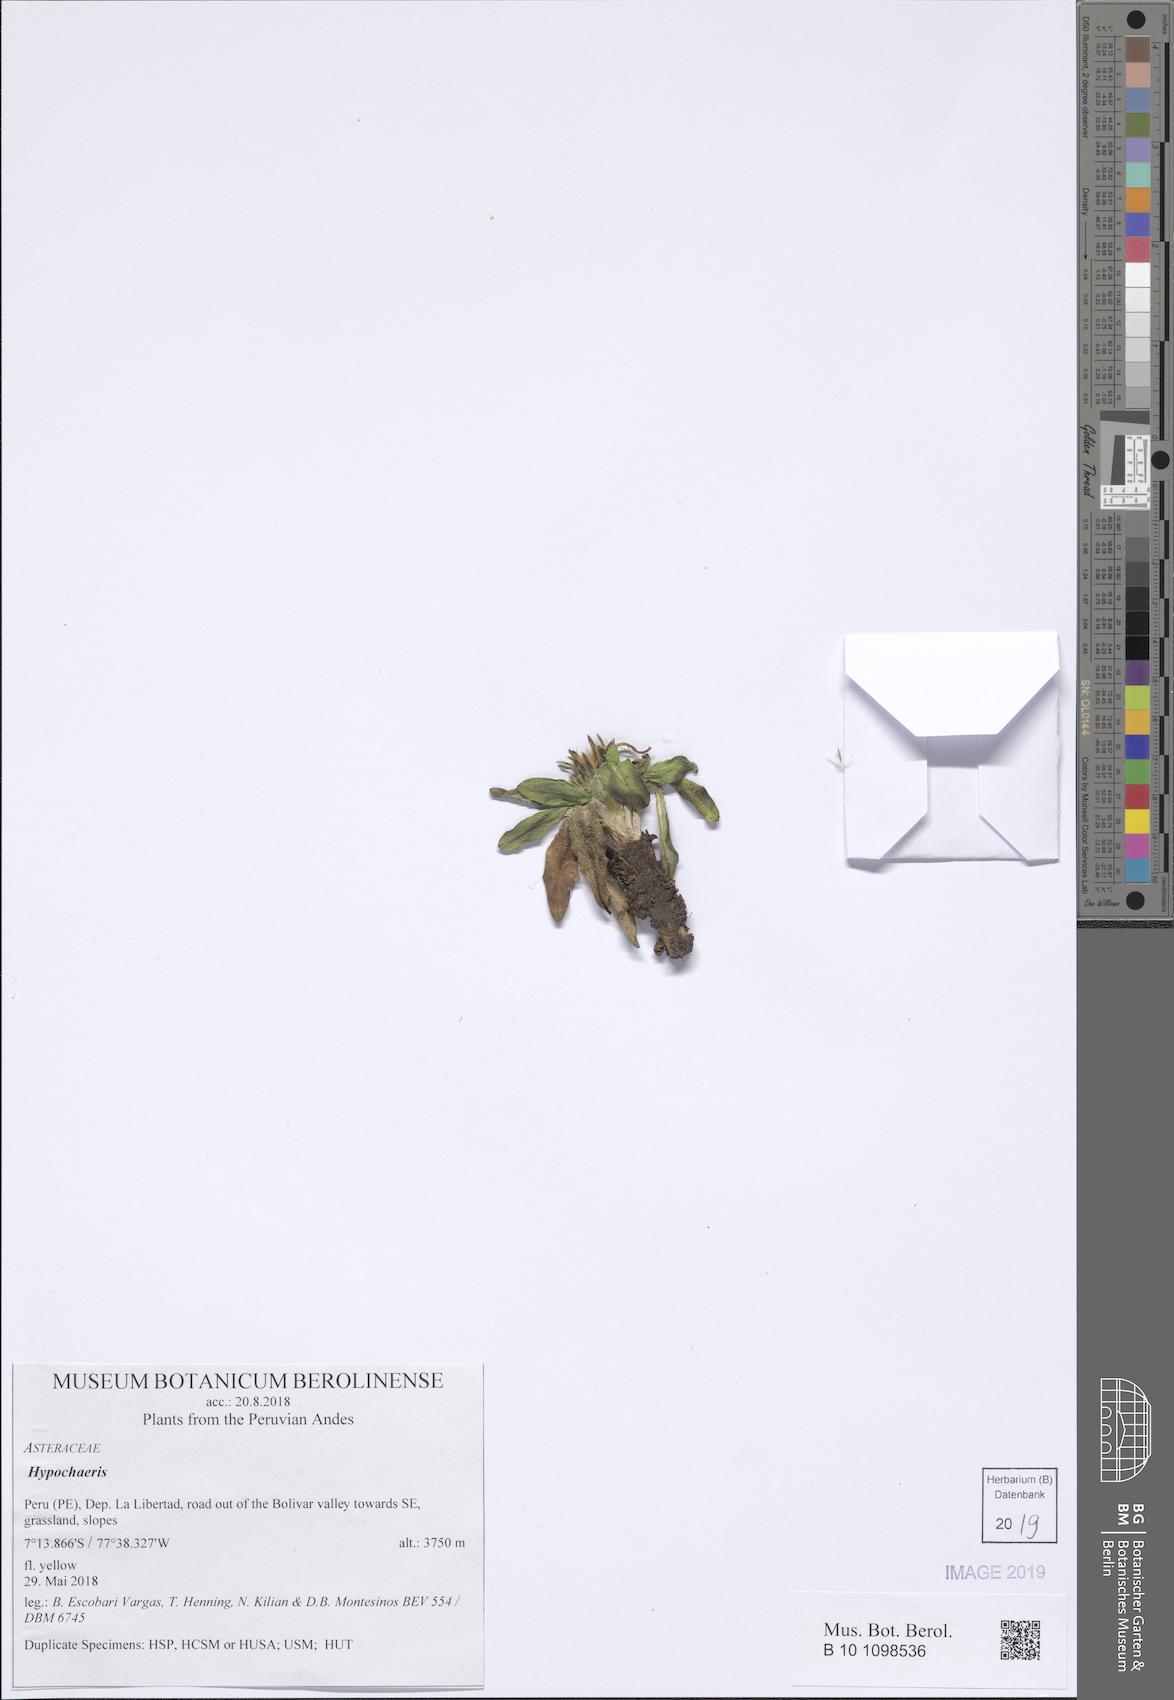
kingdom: Plantae
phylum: Tracheophyta
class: Magnoliopsida
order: Asterales
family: Asteraceae
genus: Hypochaeris
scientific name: Hypochaeris
